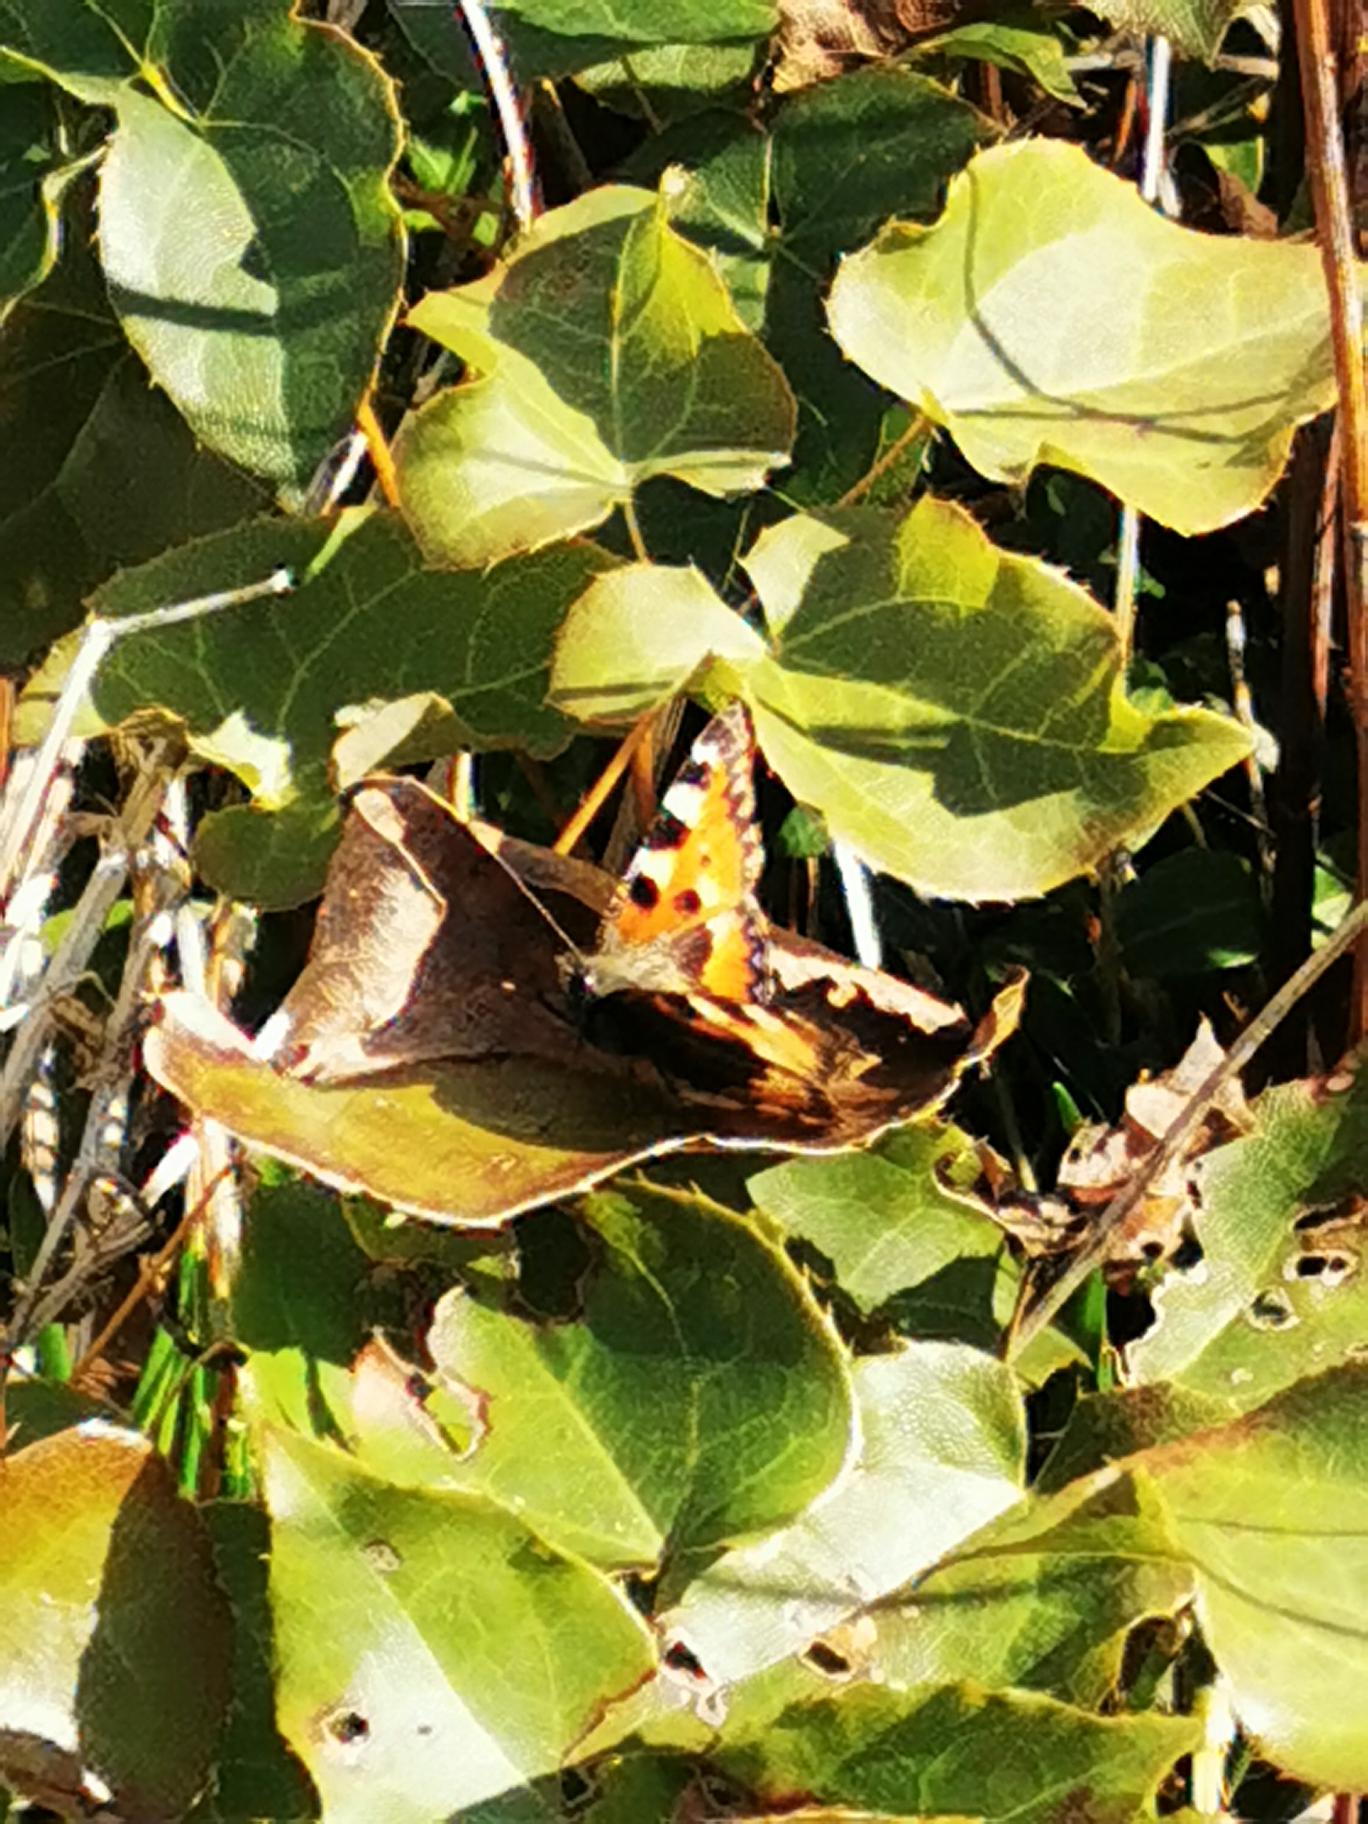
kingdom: Animalia
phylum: Arthropoda
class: Insecta
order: Lepidoptera
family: Nymphalidae
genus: Aglais
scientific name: Aglais urticae
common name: Nældens takvinge
